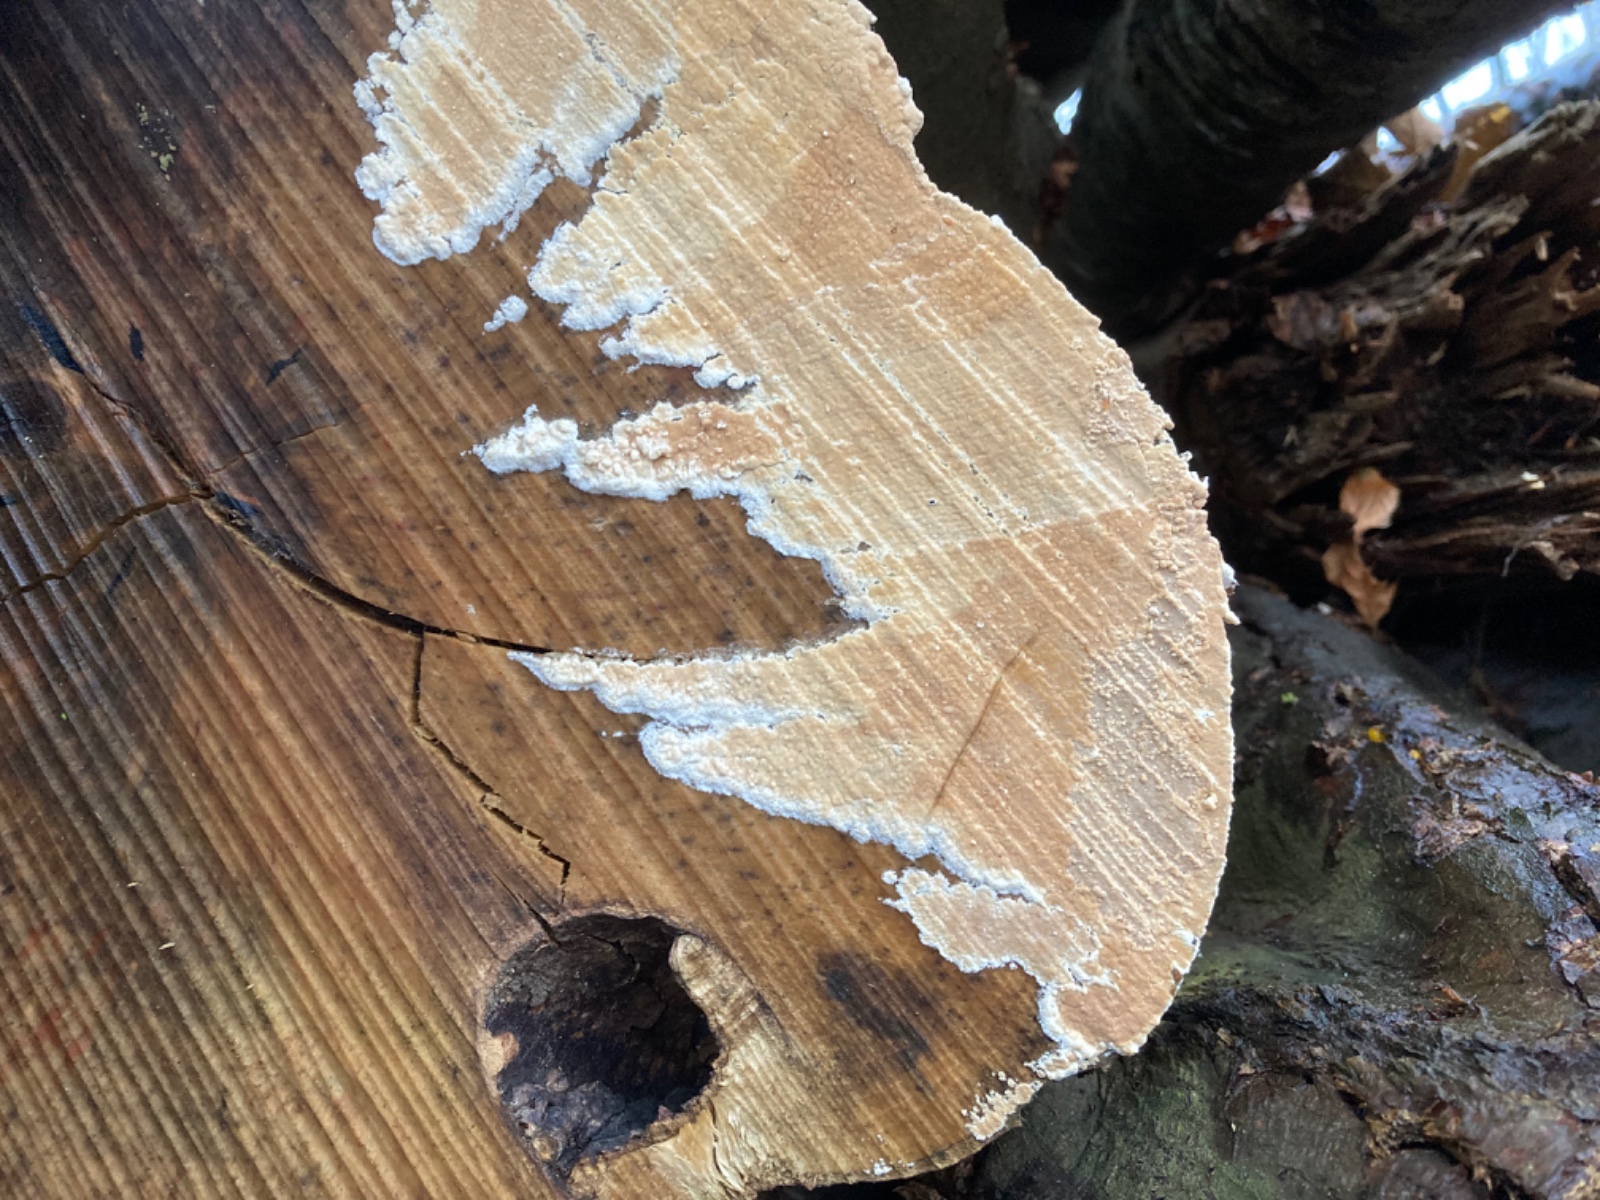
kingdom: Fungi
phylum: Basidiomycota
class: Agaricomycetes
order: Agaricales
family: Physalacriaceae
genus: Cylindrobasidium
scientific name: Cylindrobasidium evolvens
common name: sprækkehinde
